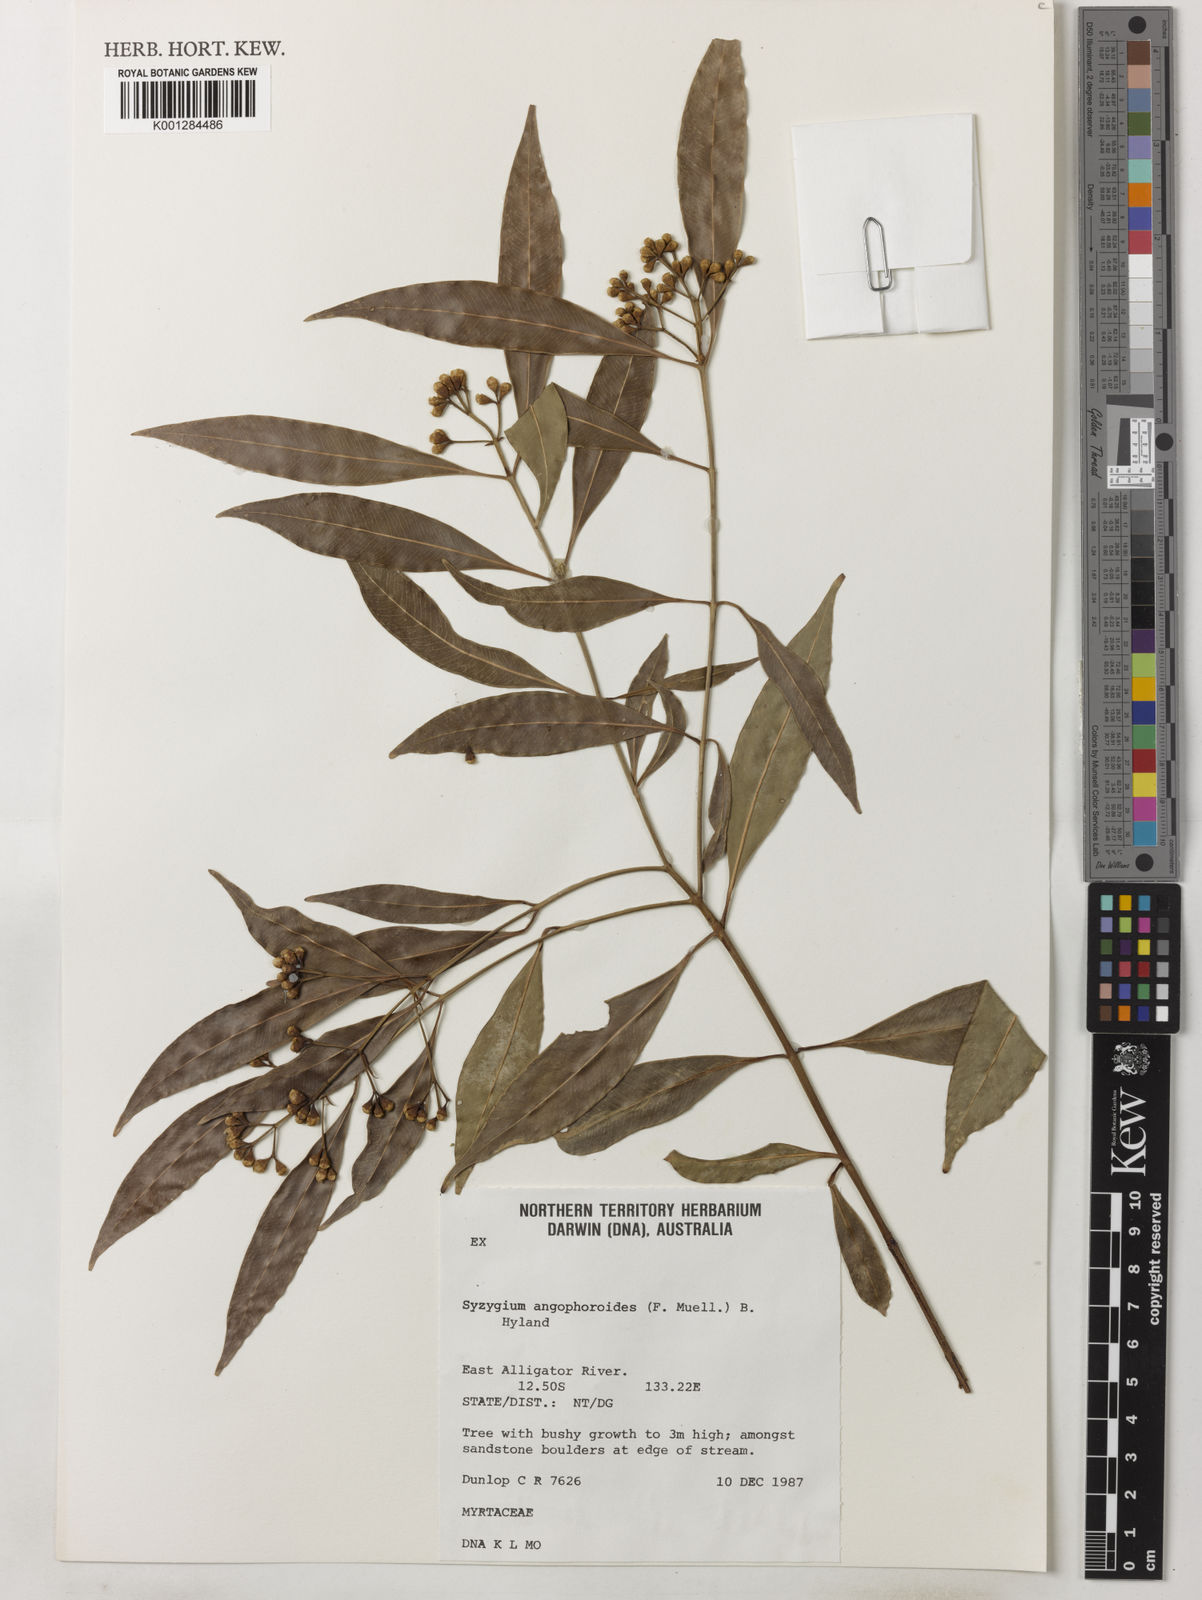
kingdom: Plantae
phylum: Tracheophyta
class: Magnoliopsida
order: Myrtales
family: Myrtaceae
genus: Syzygium
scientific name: Syzygium angophoroides
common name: Swamp satinash
